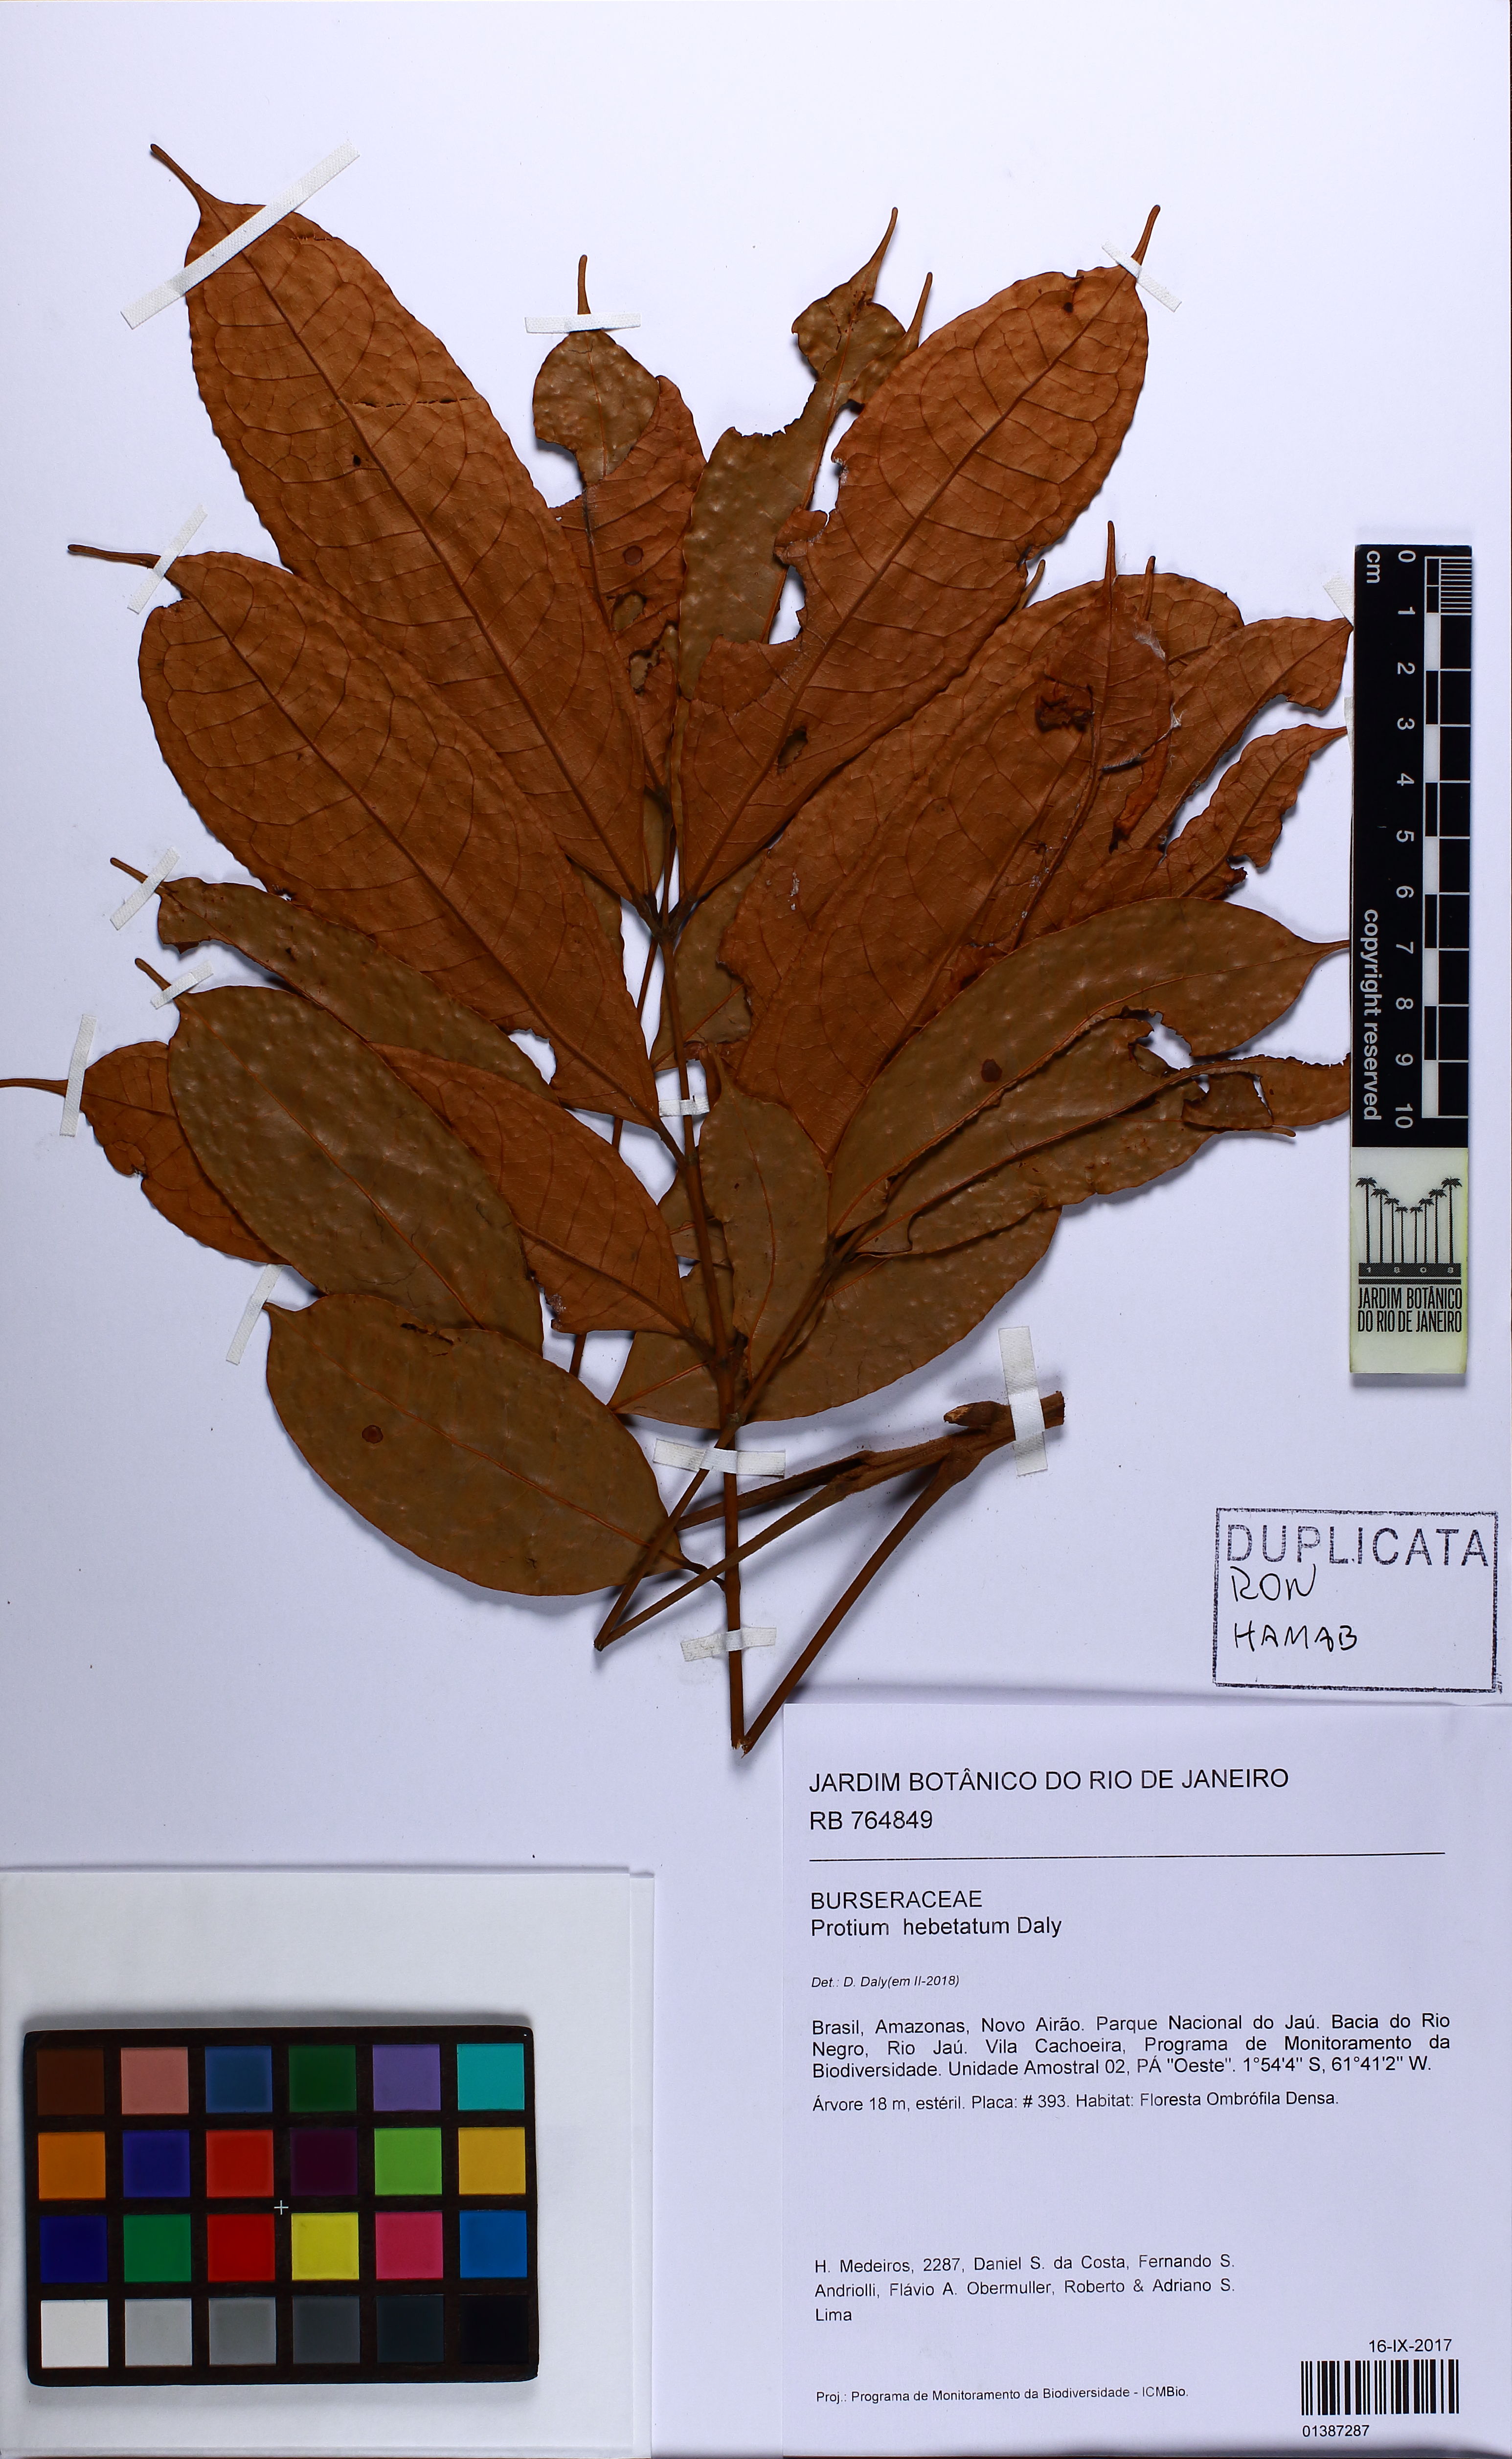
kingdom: Plantae
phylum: Tracheophyta
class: Magnoliopsida
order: Sapindales
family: Burseraceae
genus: Protium
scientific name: Protium hebetatum
